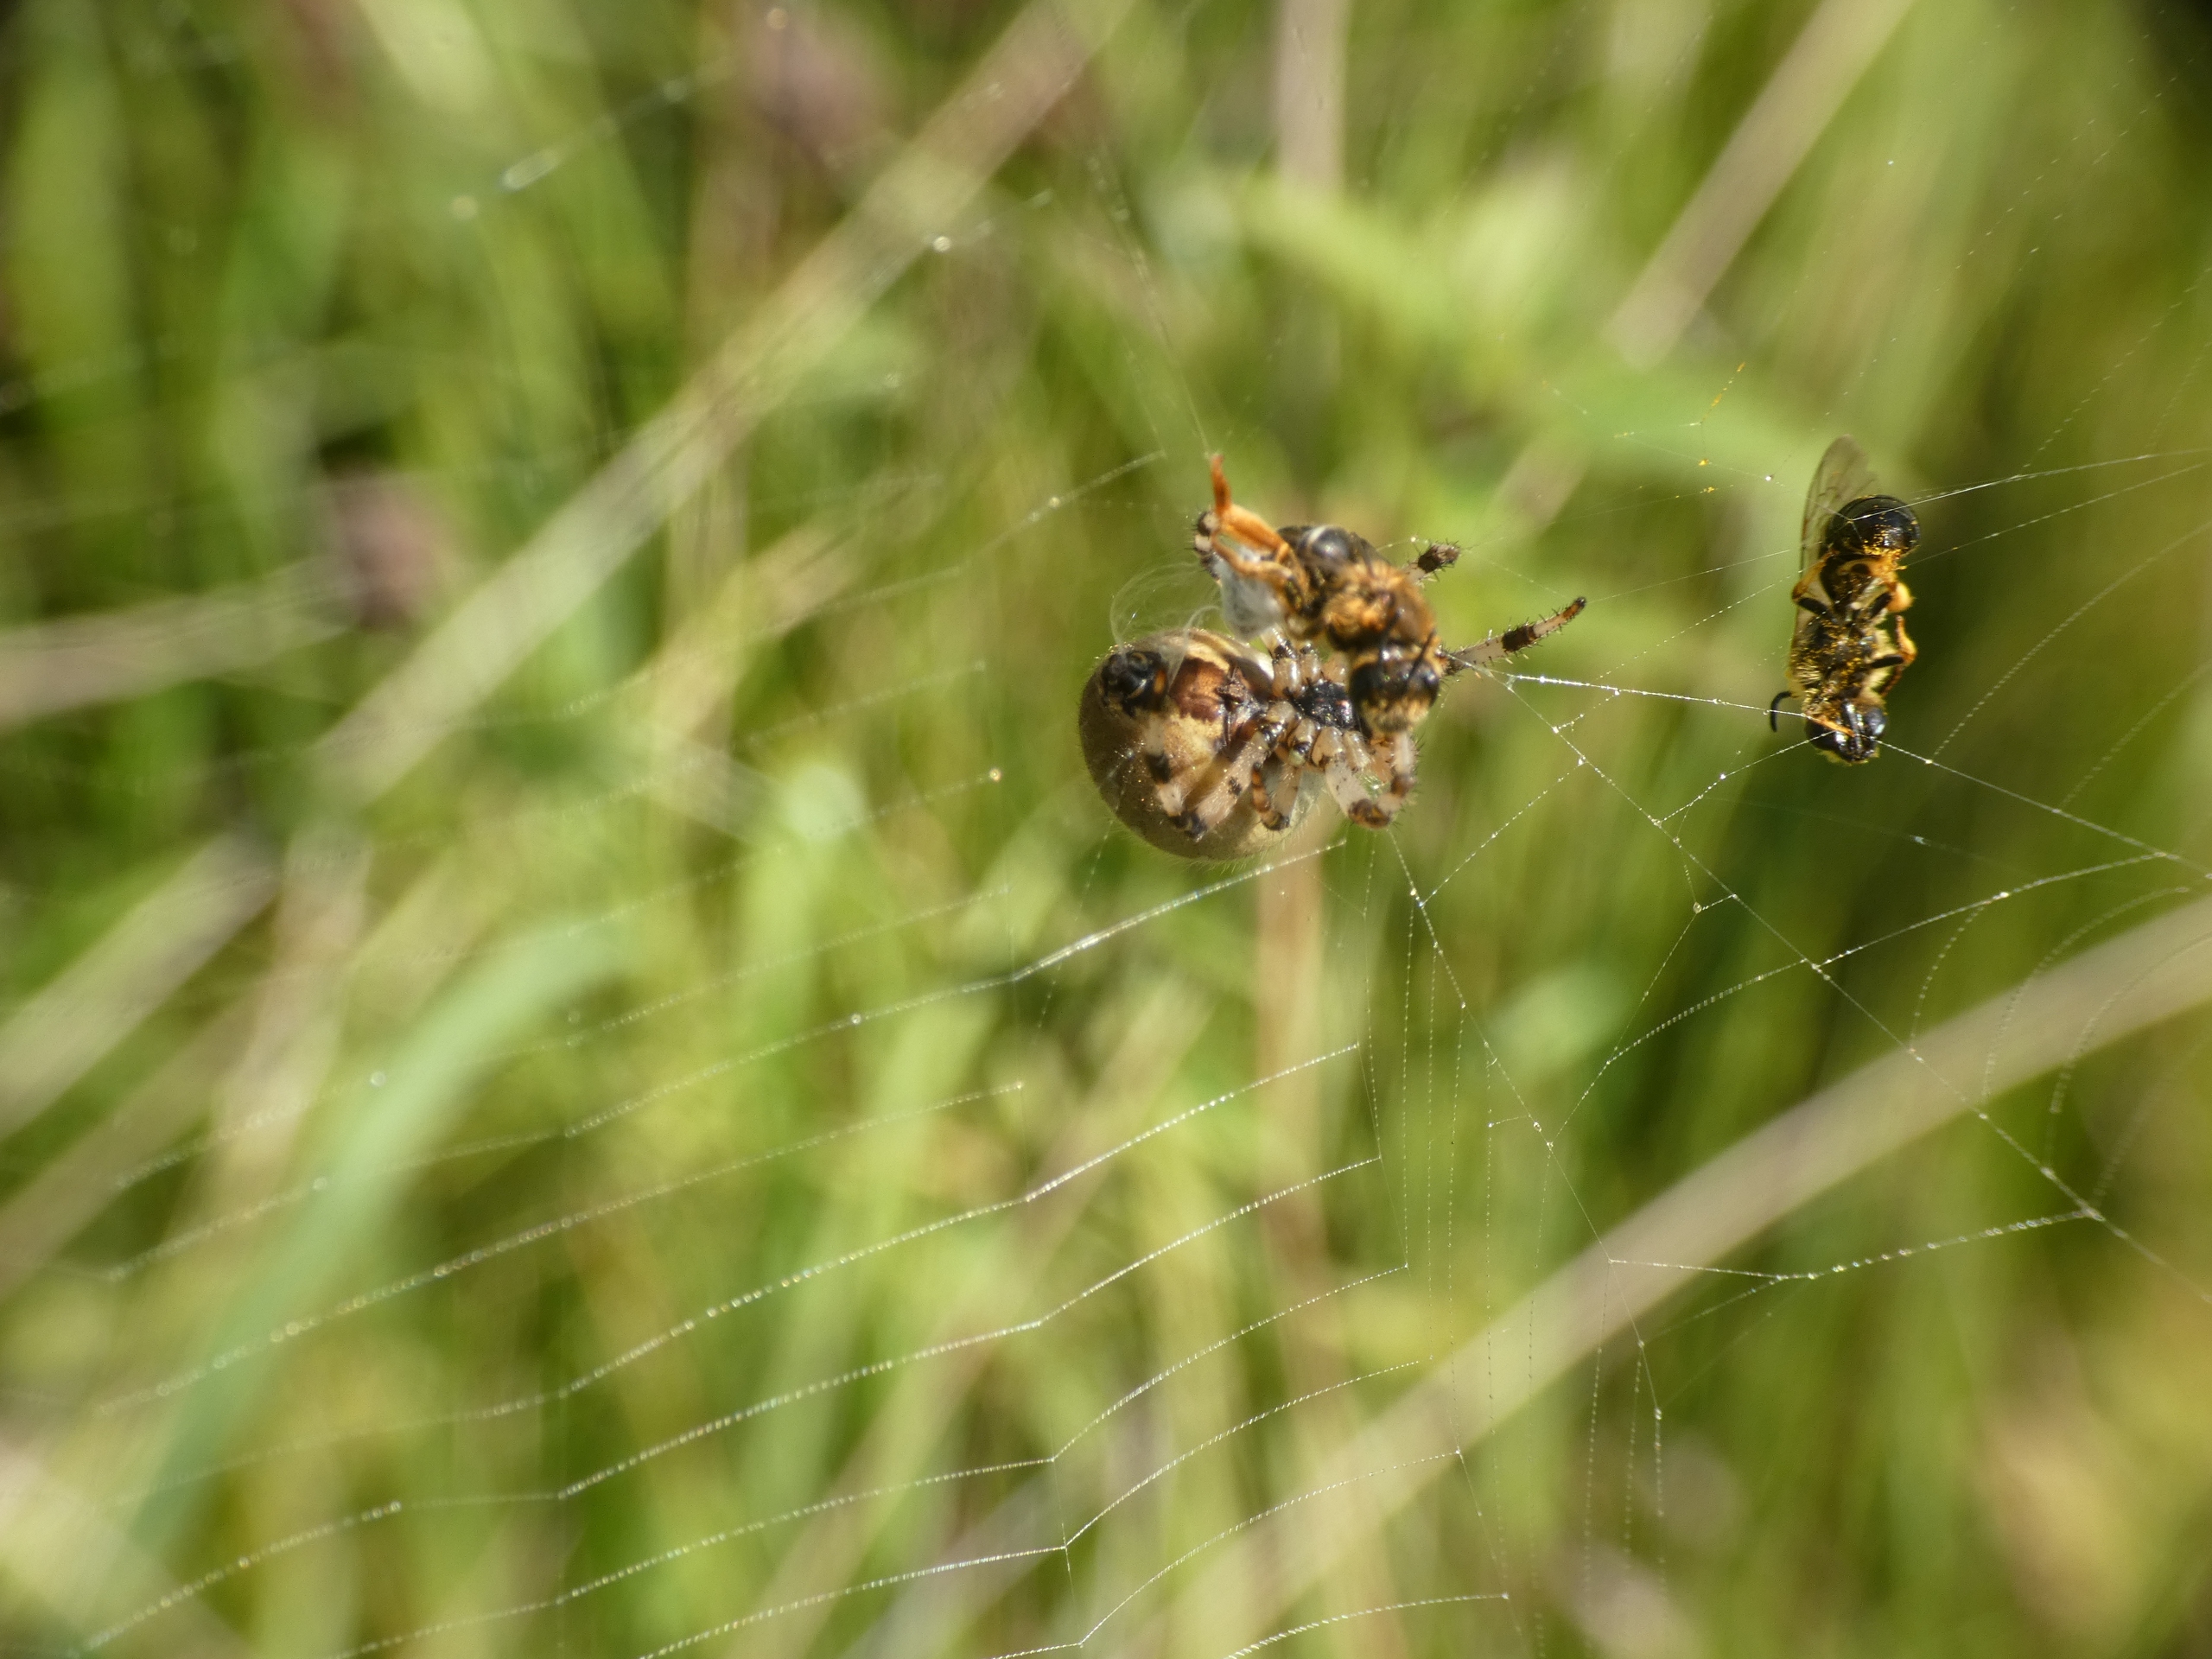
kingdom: Animalia
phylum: Arthropoda
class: Arachnida
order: Araneae
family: Araneidae
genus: Araneus
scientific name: Araneus quadratus
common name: Kvadratedderkop
